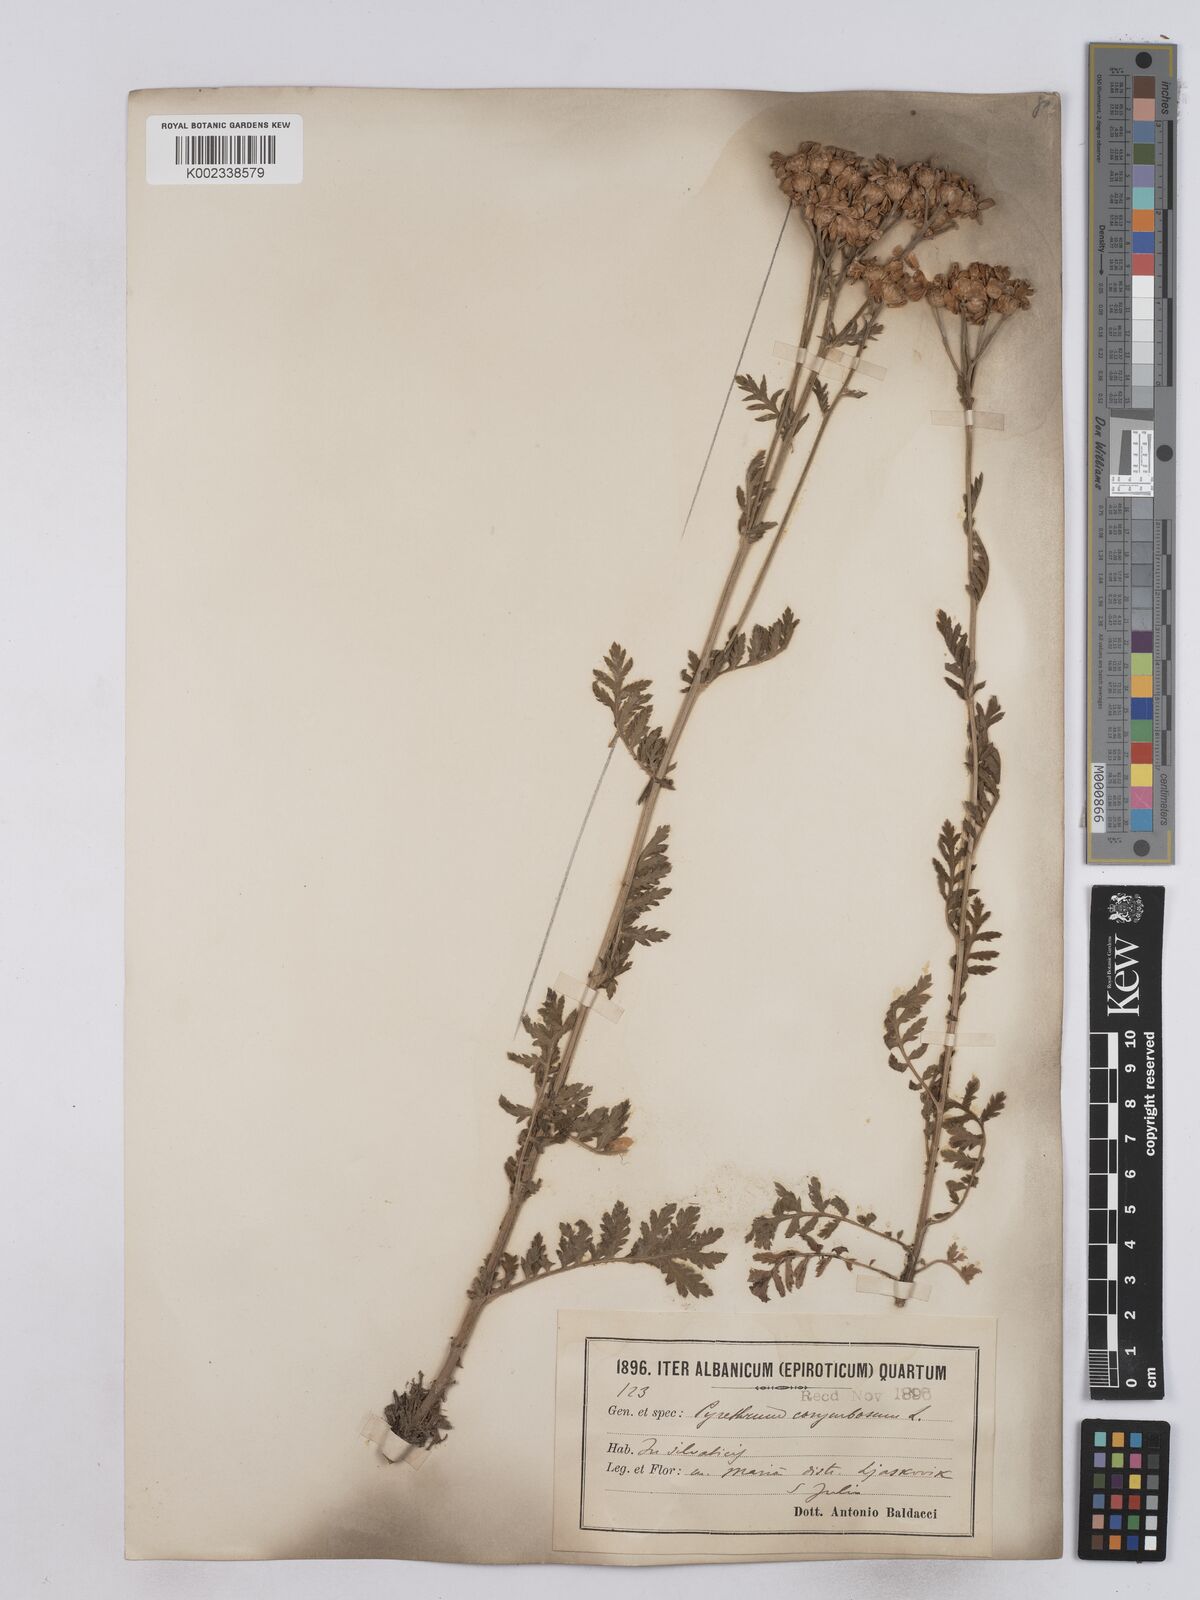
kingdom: Plantae
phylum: Tracheophyta
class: Magnoliopsida
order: Asterales
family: Asteraceae
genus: Tanacetum
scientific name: Tanacetum corymbosum
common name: Scentless feverfew
